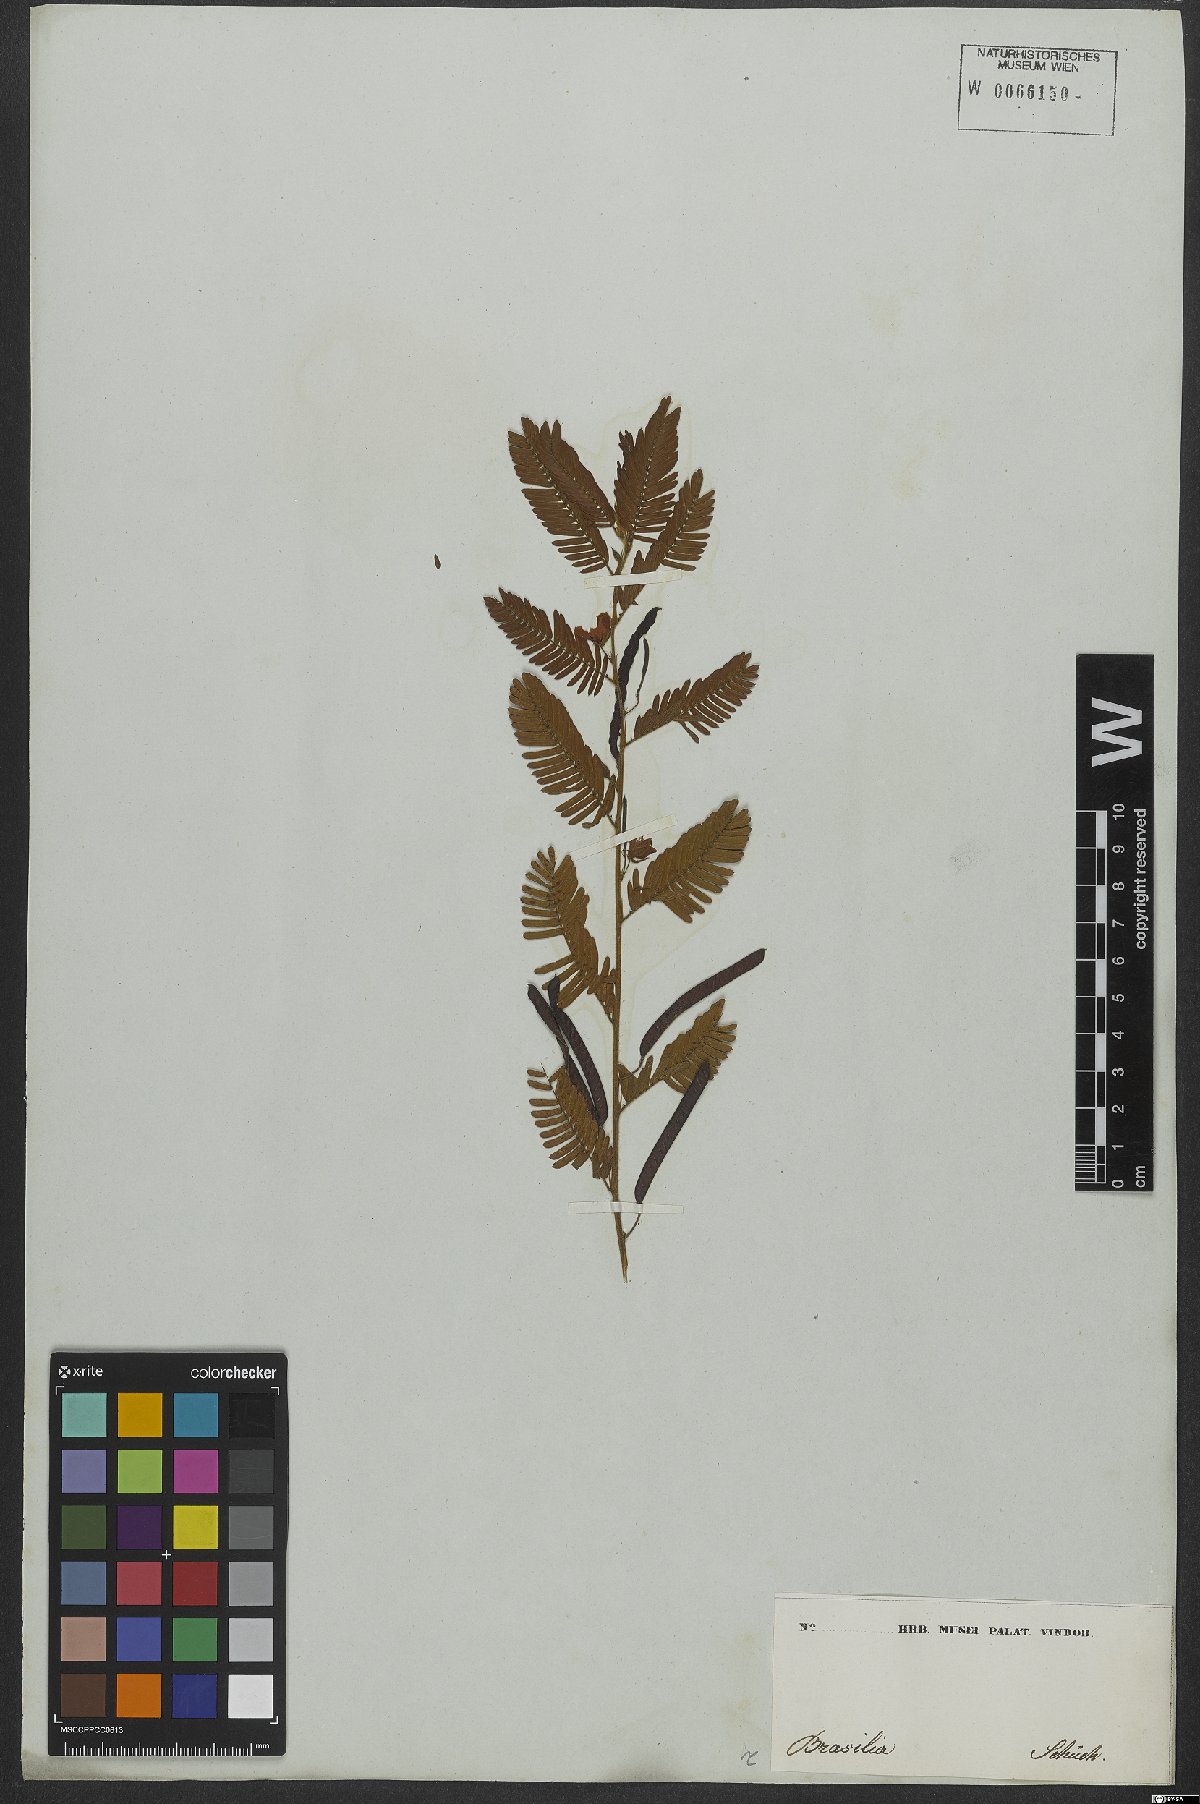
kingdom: Plantae
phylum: Tracheophyta
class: Magnoliopsida
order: Fabales
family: Fabaceae
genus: Chamaecrista
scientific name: Chamaecrista nictitans
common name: Sensitive cassia
